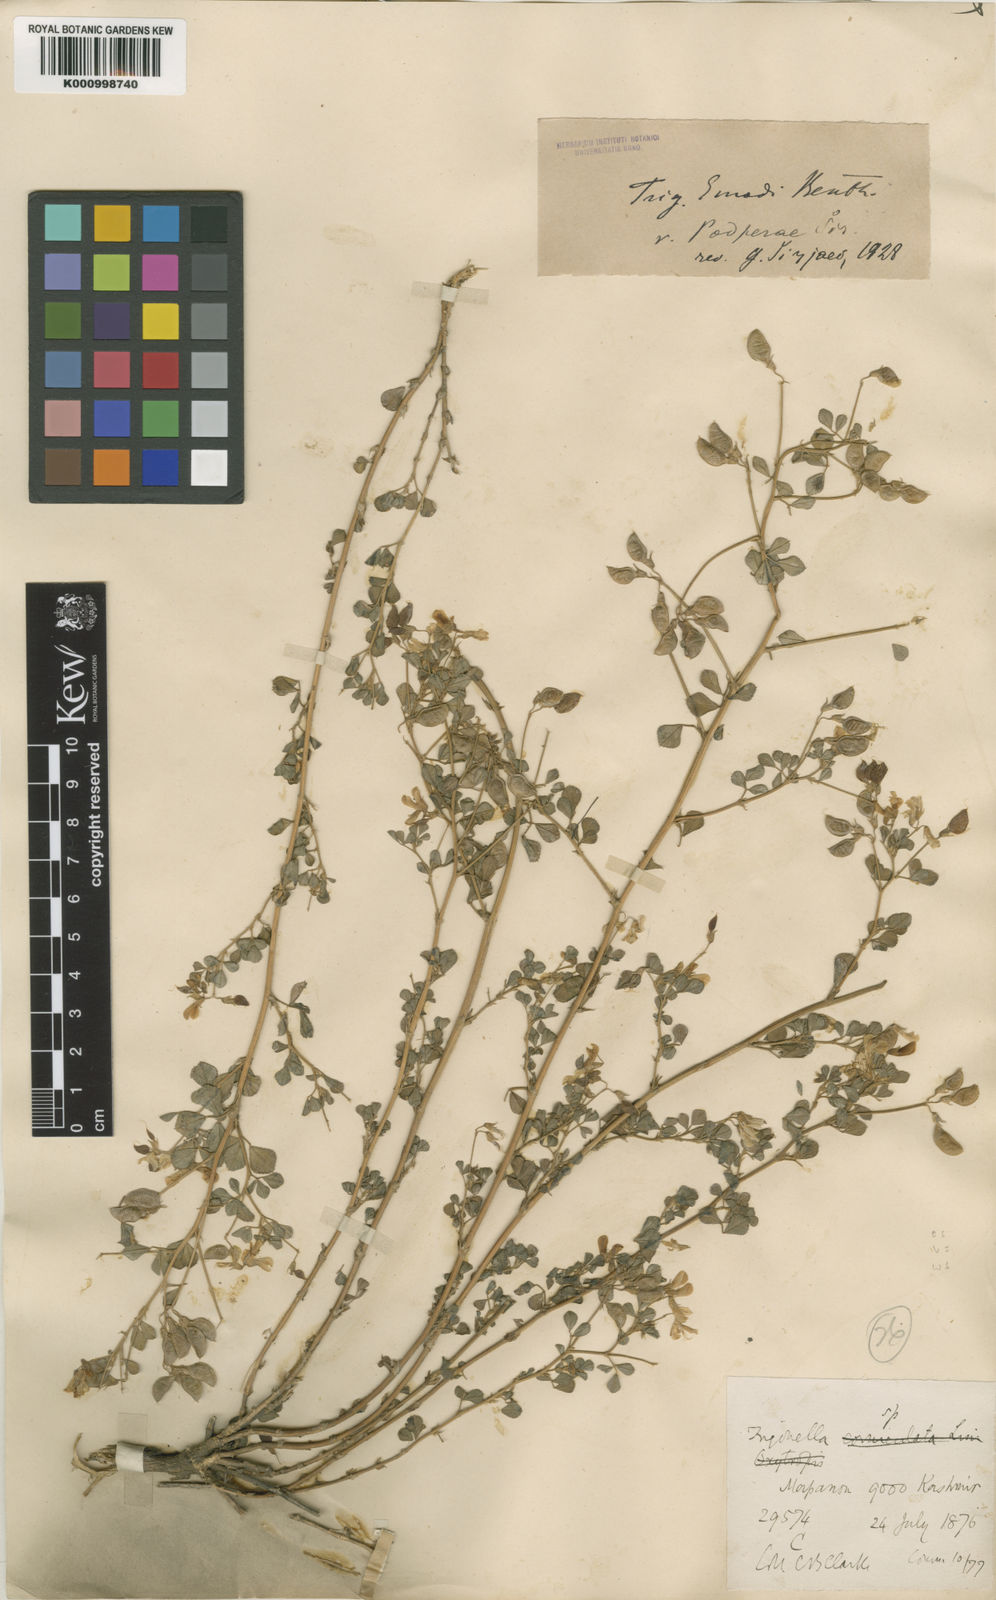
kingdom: Plantae
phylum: Tracheophyta
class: Magnoliopsida
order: Fabales
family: Fabaceae
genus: Trigonella
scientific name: Trigonella podperae
